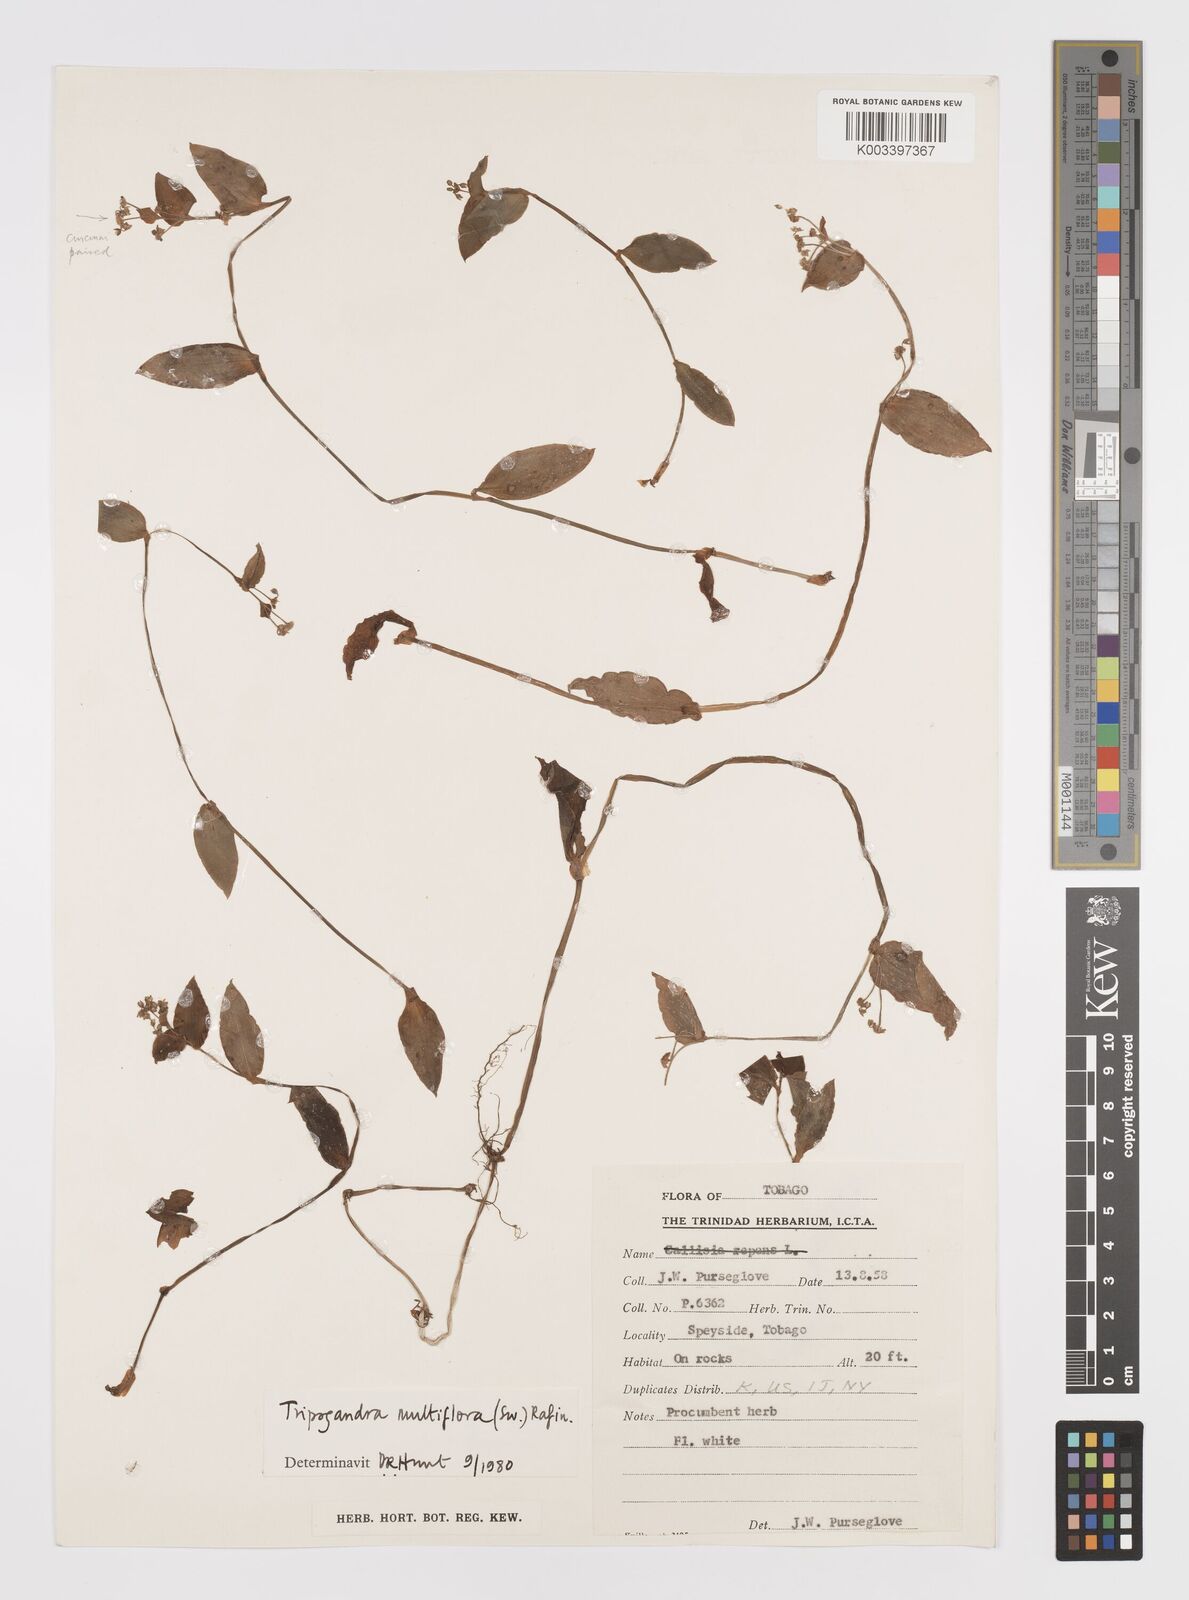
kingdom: Plantae
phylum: Tracheophyta
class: Liliopsida
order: Commelinales
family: Commelinaceae
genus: Callisia
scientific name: Callisia procumbens
